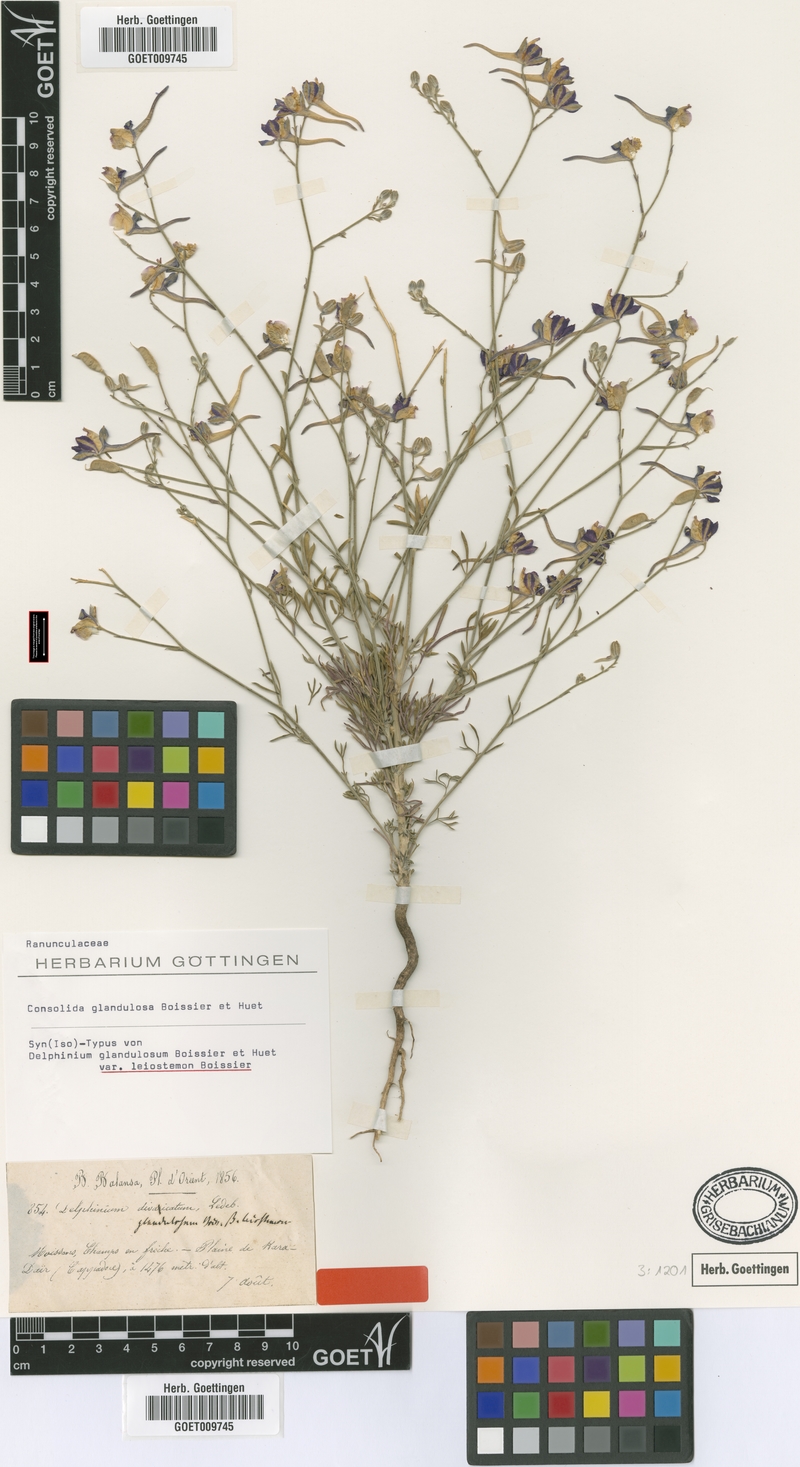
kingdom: Plantae
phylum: Tracheophyta
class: Magnoliopsida
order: Ranunculales
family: Ranunculaceae
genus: Delphinium
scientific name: Delphinium glandulosum
